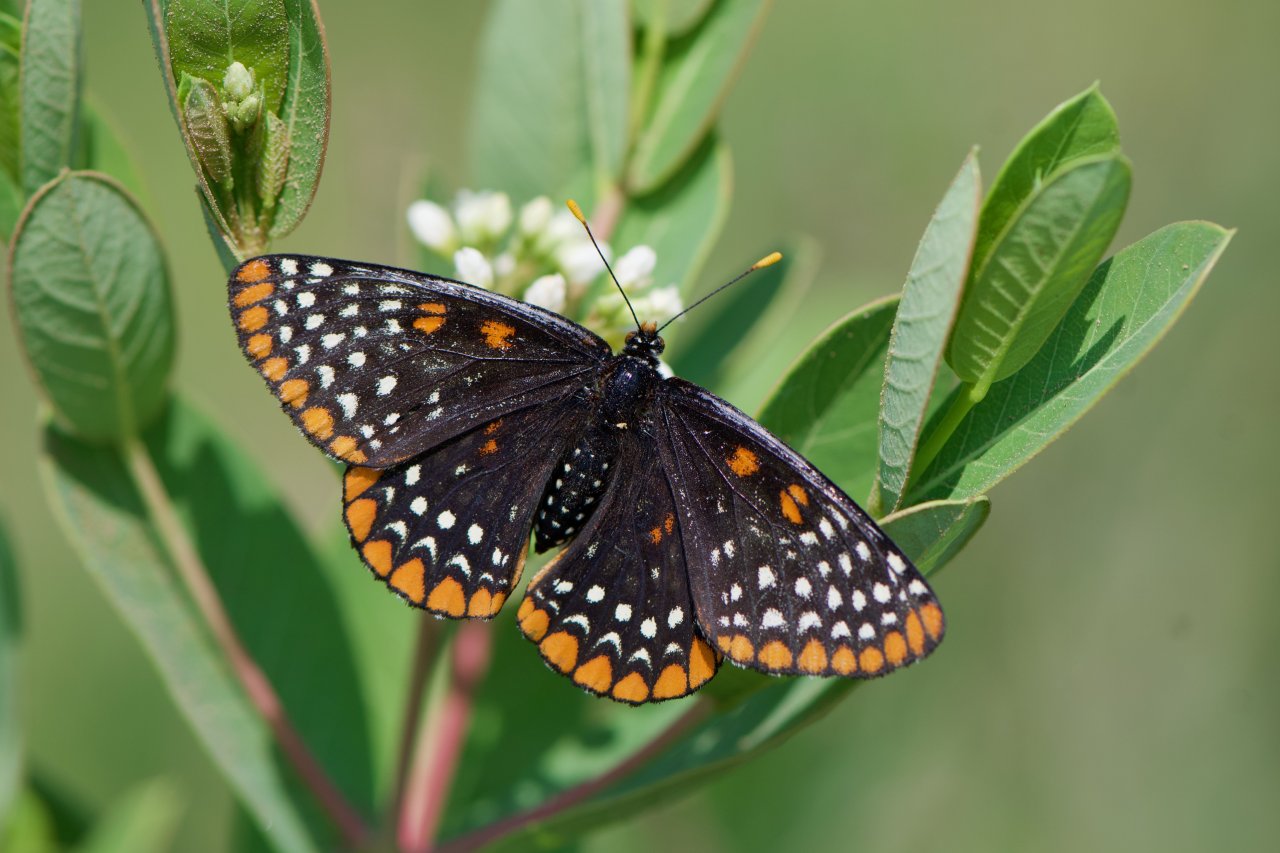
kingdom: Animalia
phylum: Arthropoda
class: Insecta
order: Lepidoptera
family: Nymphalidae
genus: Euphydryas
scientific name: Euphydryas phaeton
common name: Baltimore Checkerspot
